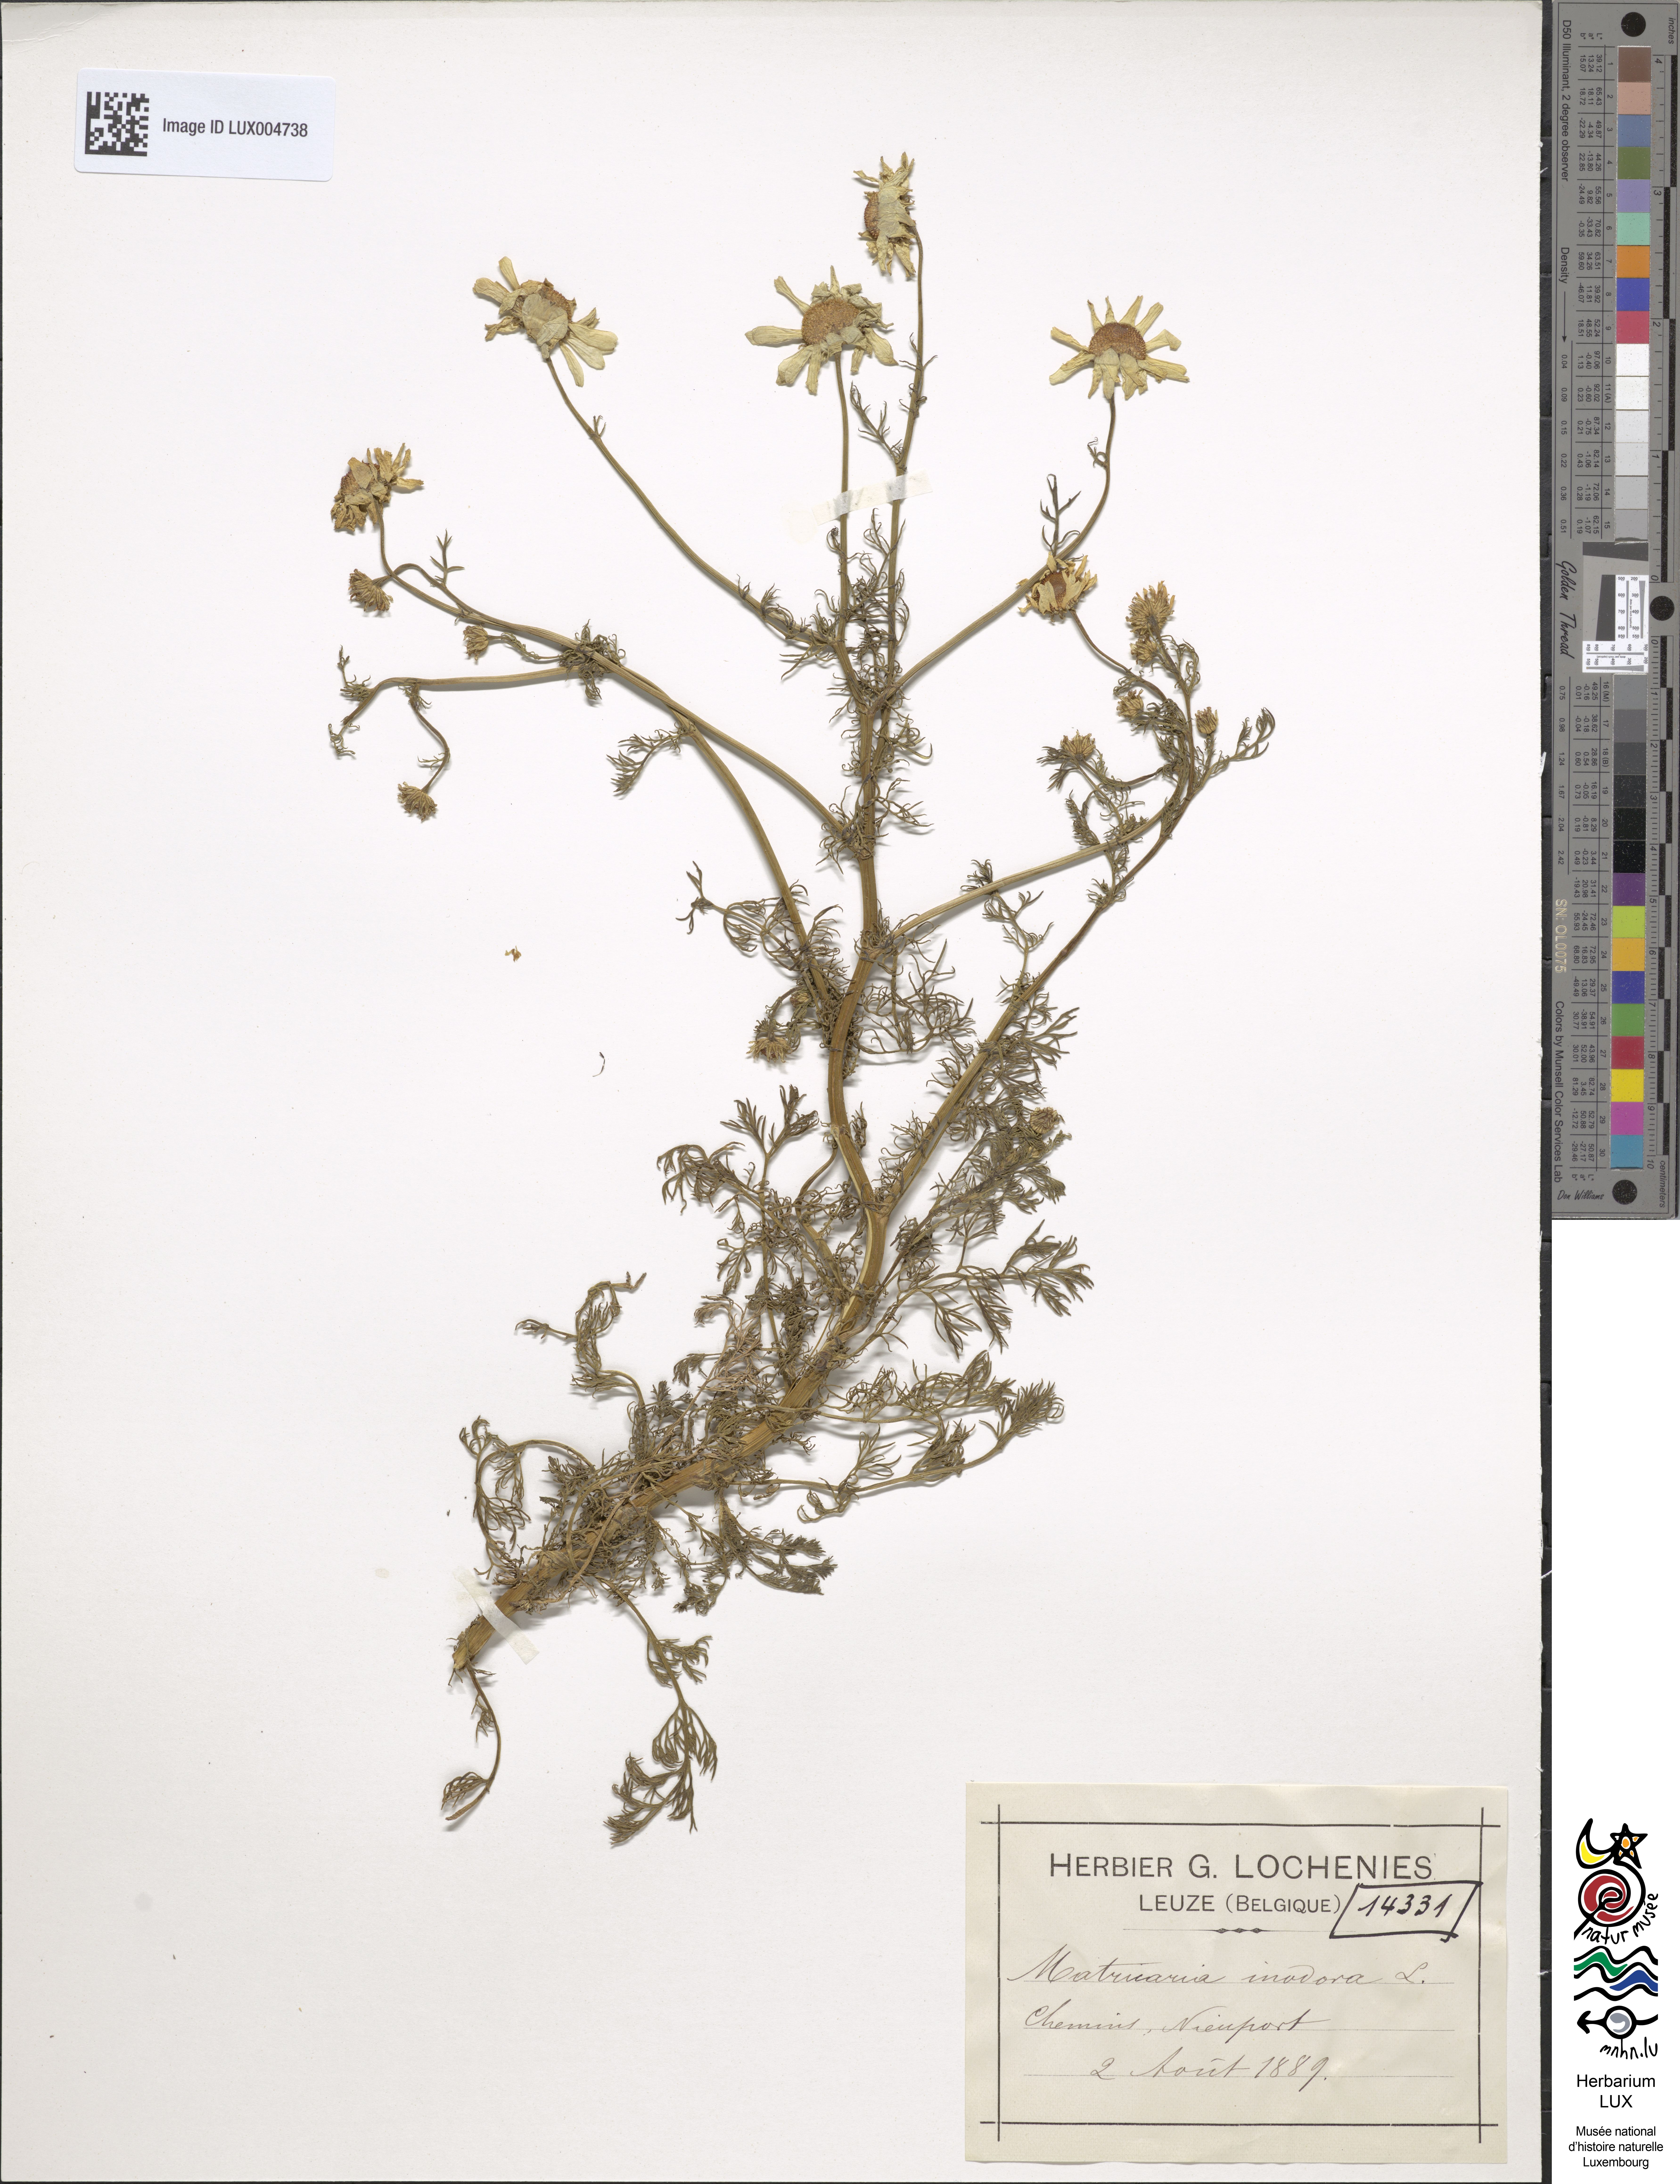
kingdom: Plantae
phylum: Tracheophyta
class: Magnoliopsida
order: Asterales
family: Asteraceae
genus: Tripleurospermum
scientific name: Tripleurospermum inodorum
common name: Scentless mayweed
